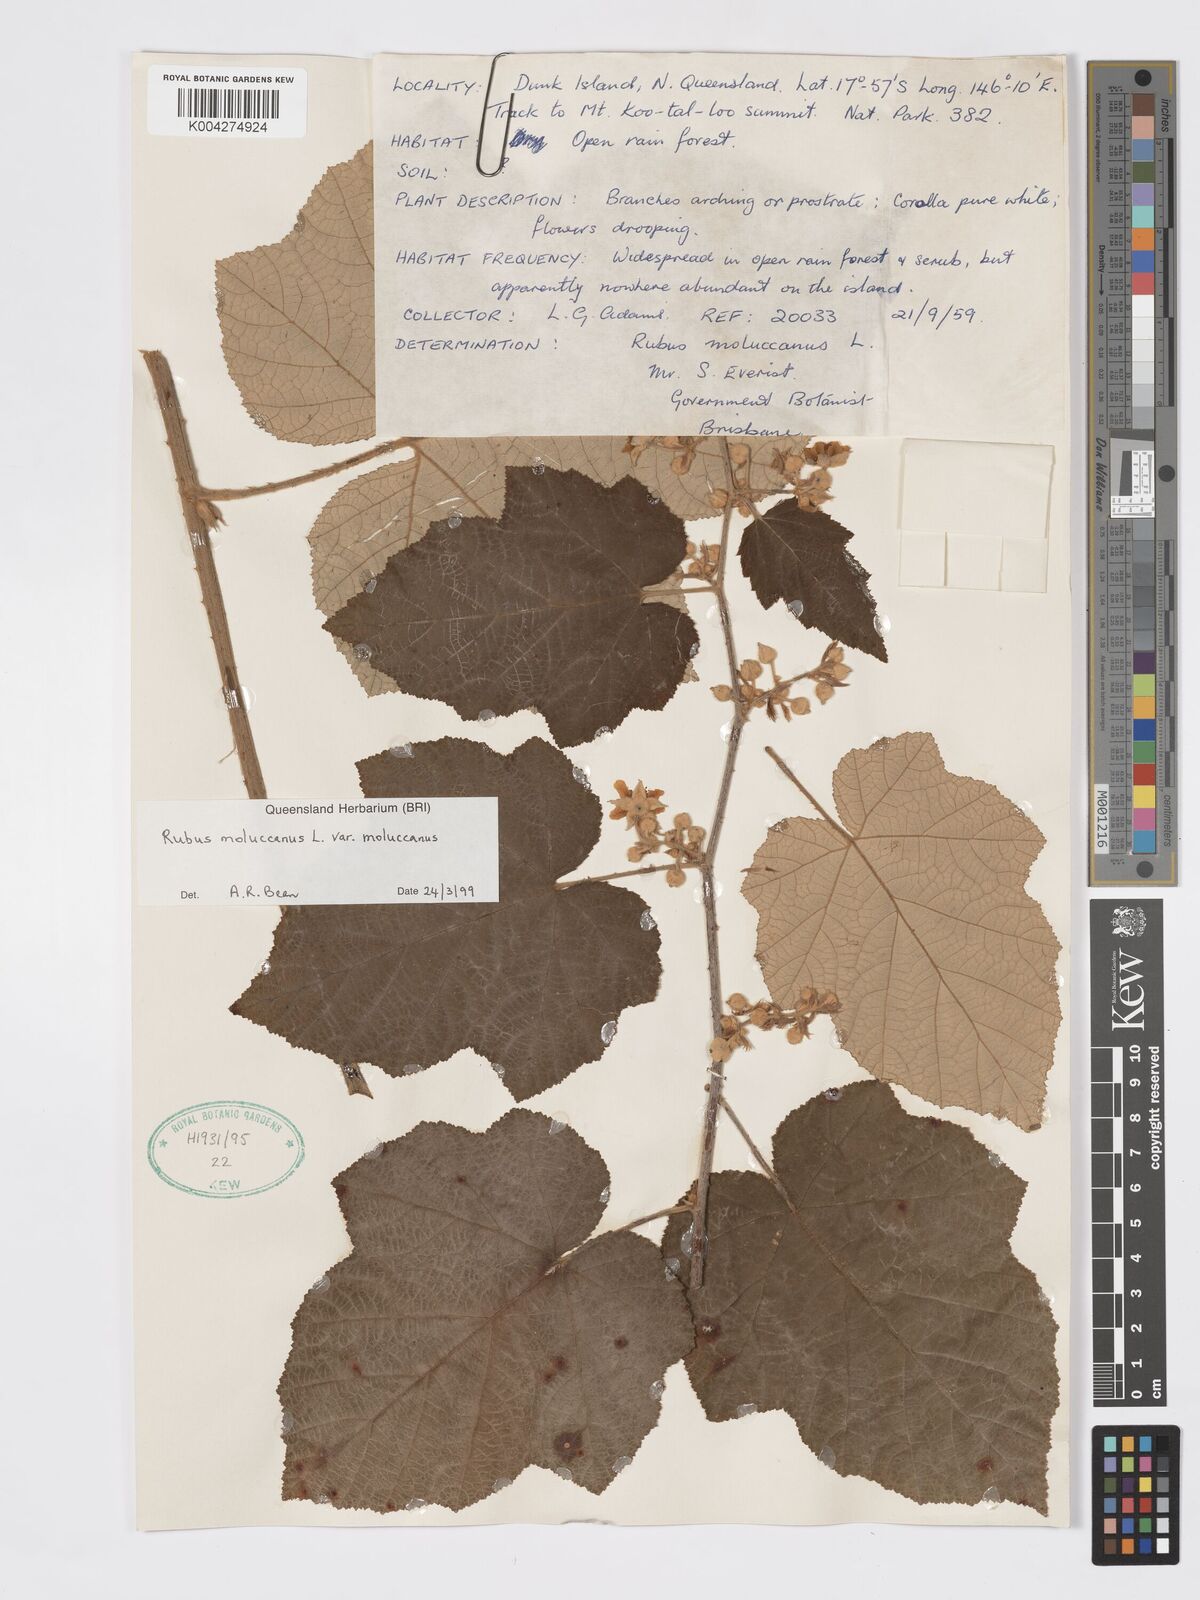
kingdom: Plantae
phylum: Tracheophyta
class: Magnoliopsida
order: Rosales
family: Rosaceae
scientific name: Rosaceae
